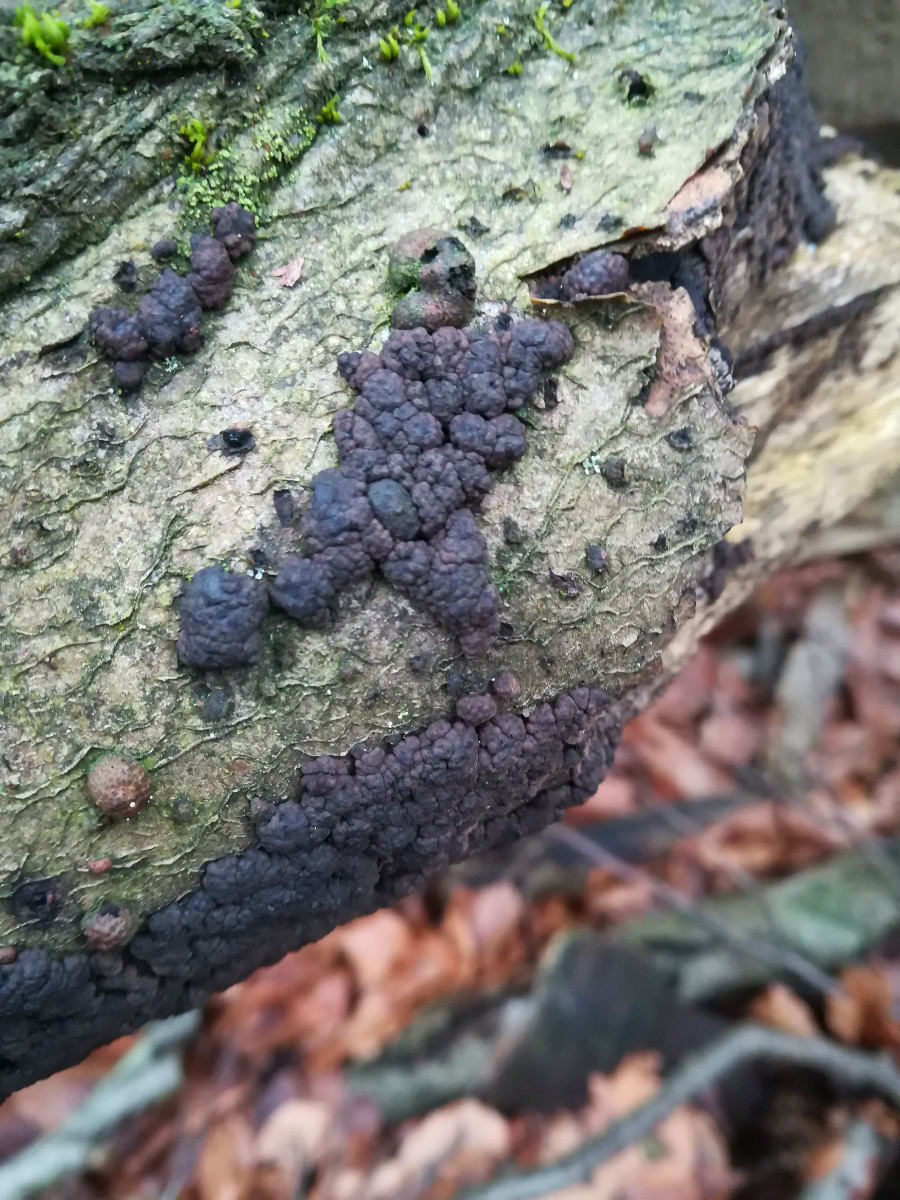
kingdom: Fungi
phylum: Ascomycota
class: Sordariomycetes
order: Xylariales
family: Hypoxylaceae
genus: Jackrogersella
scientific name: Jackrogersella cohaerens
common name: sammenflydende kulbær
